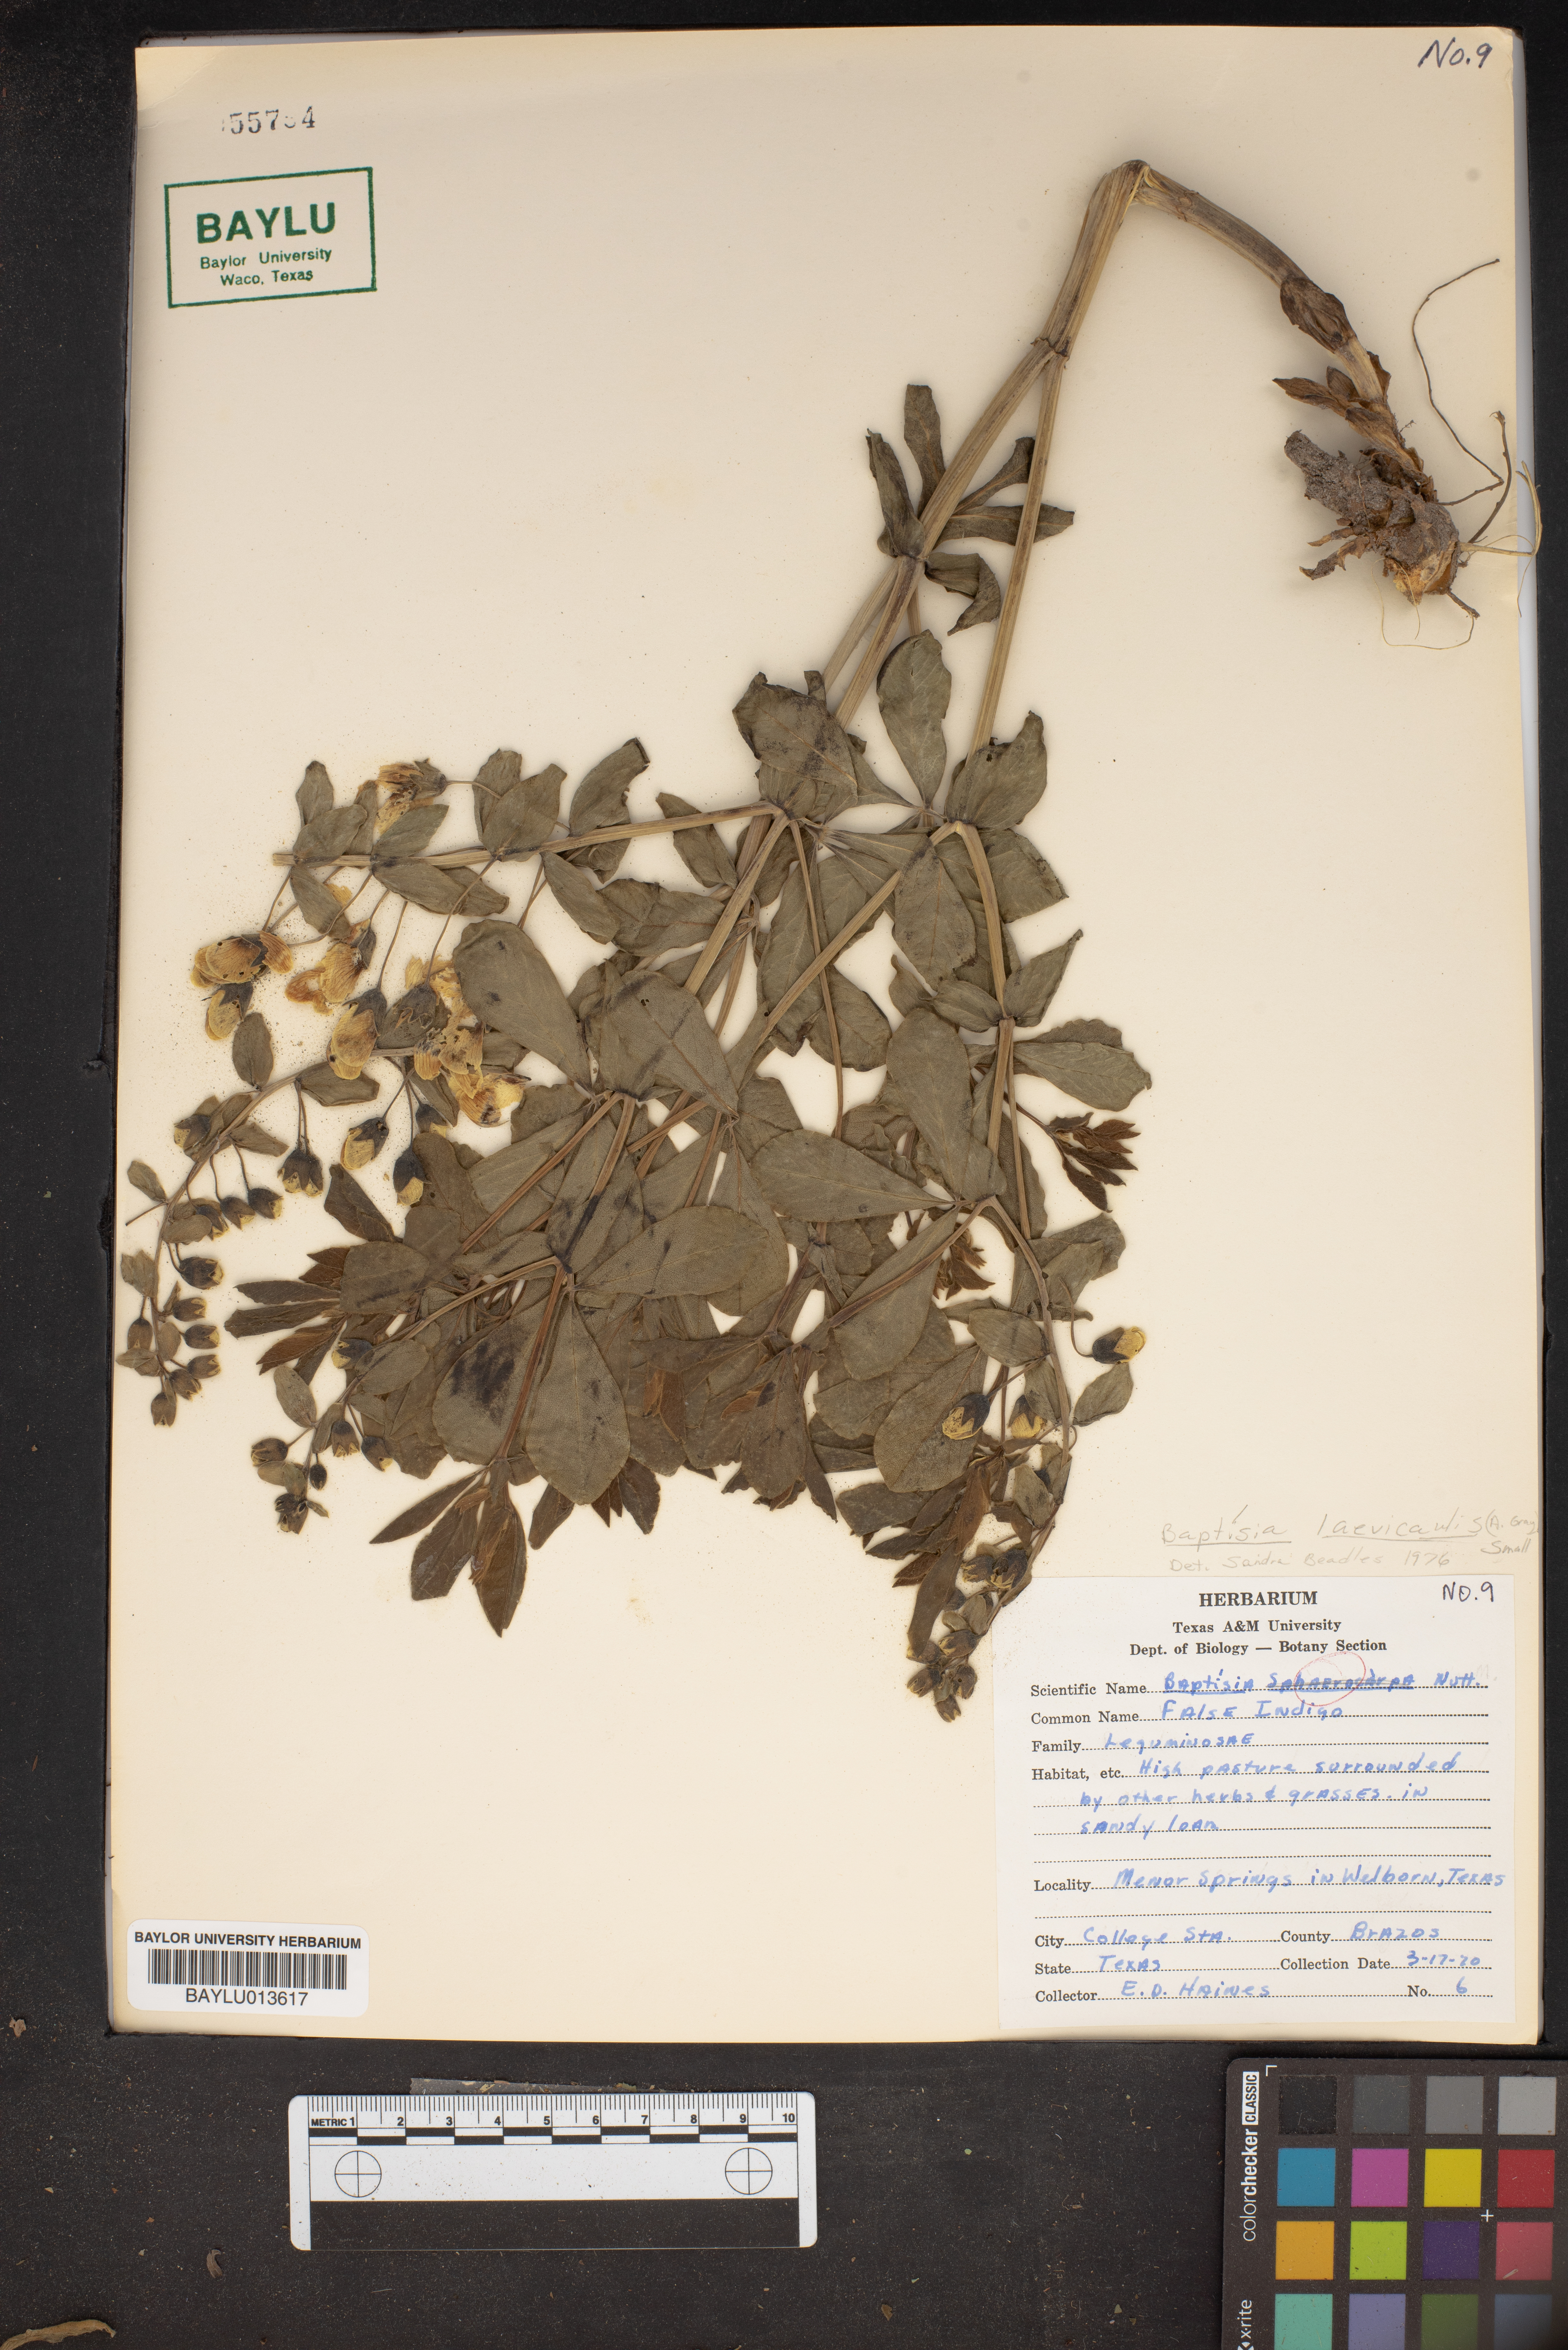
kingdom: Plantae
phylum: Tracheophyta
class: Magnoliopsida
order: Fabales
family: Fabaceae
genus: Baptisia
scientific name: Baptisia bracteata
